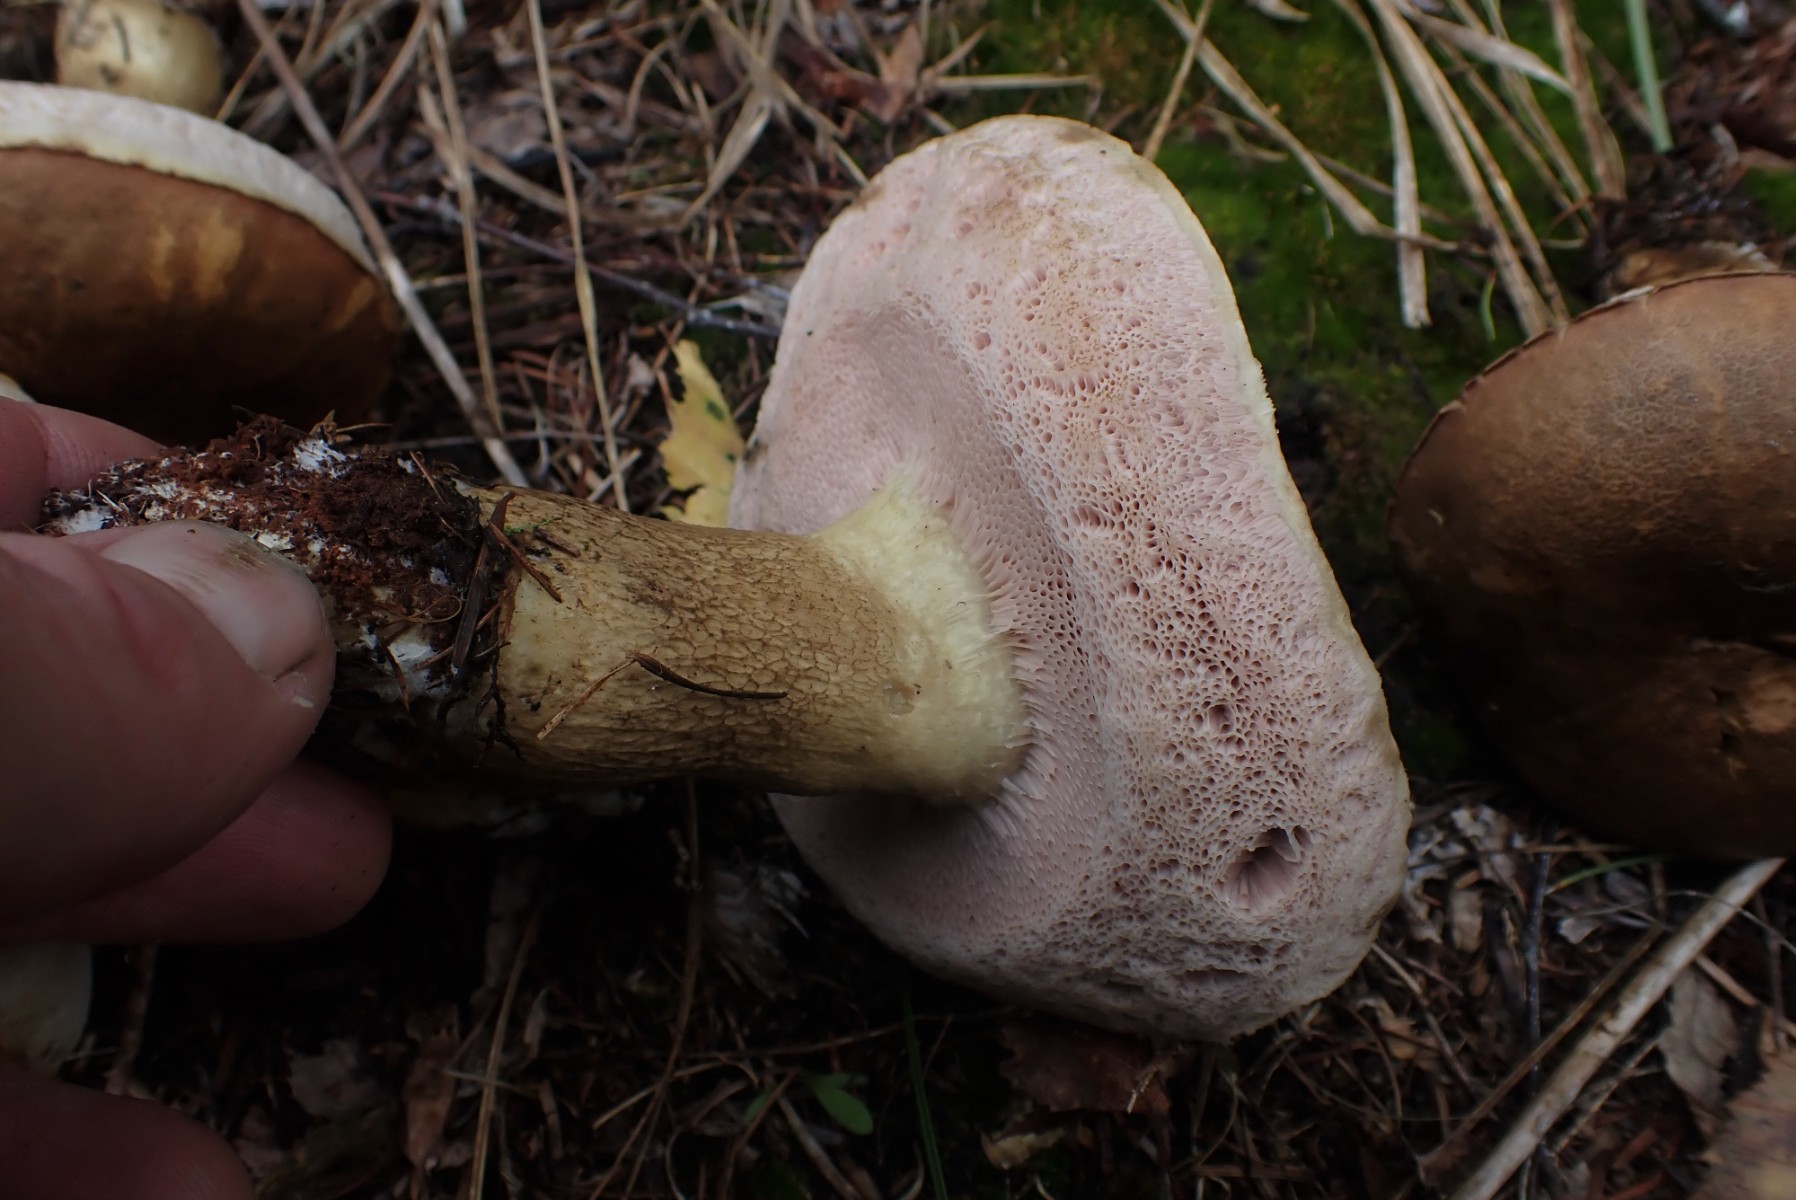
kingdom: Fungi
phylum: Basidiomycota
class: Agaricomycetes
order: Boletales
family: Boletaceae
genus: Tylopilus
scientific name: Tylopilus felleus
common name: galderørhat
